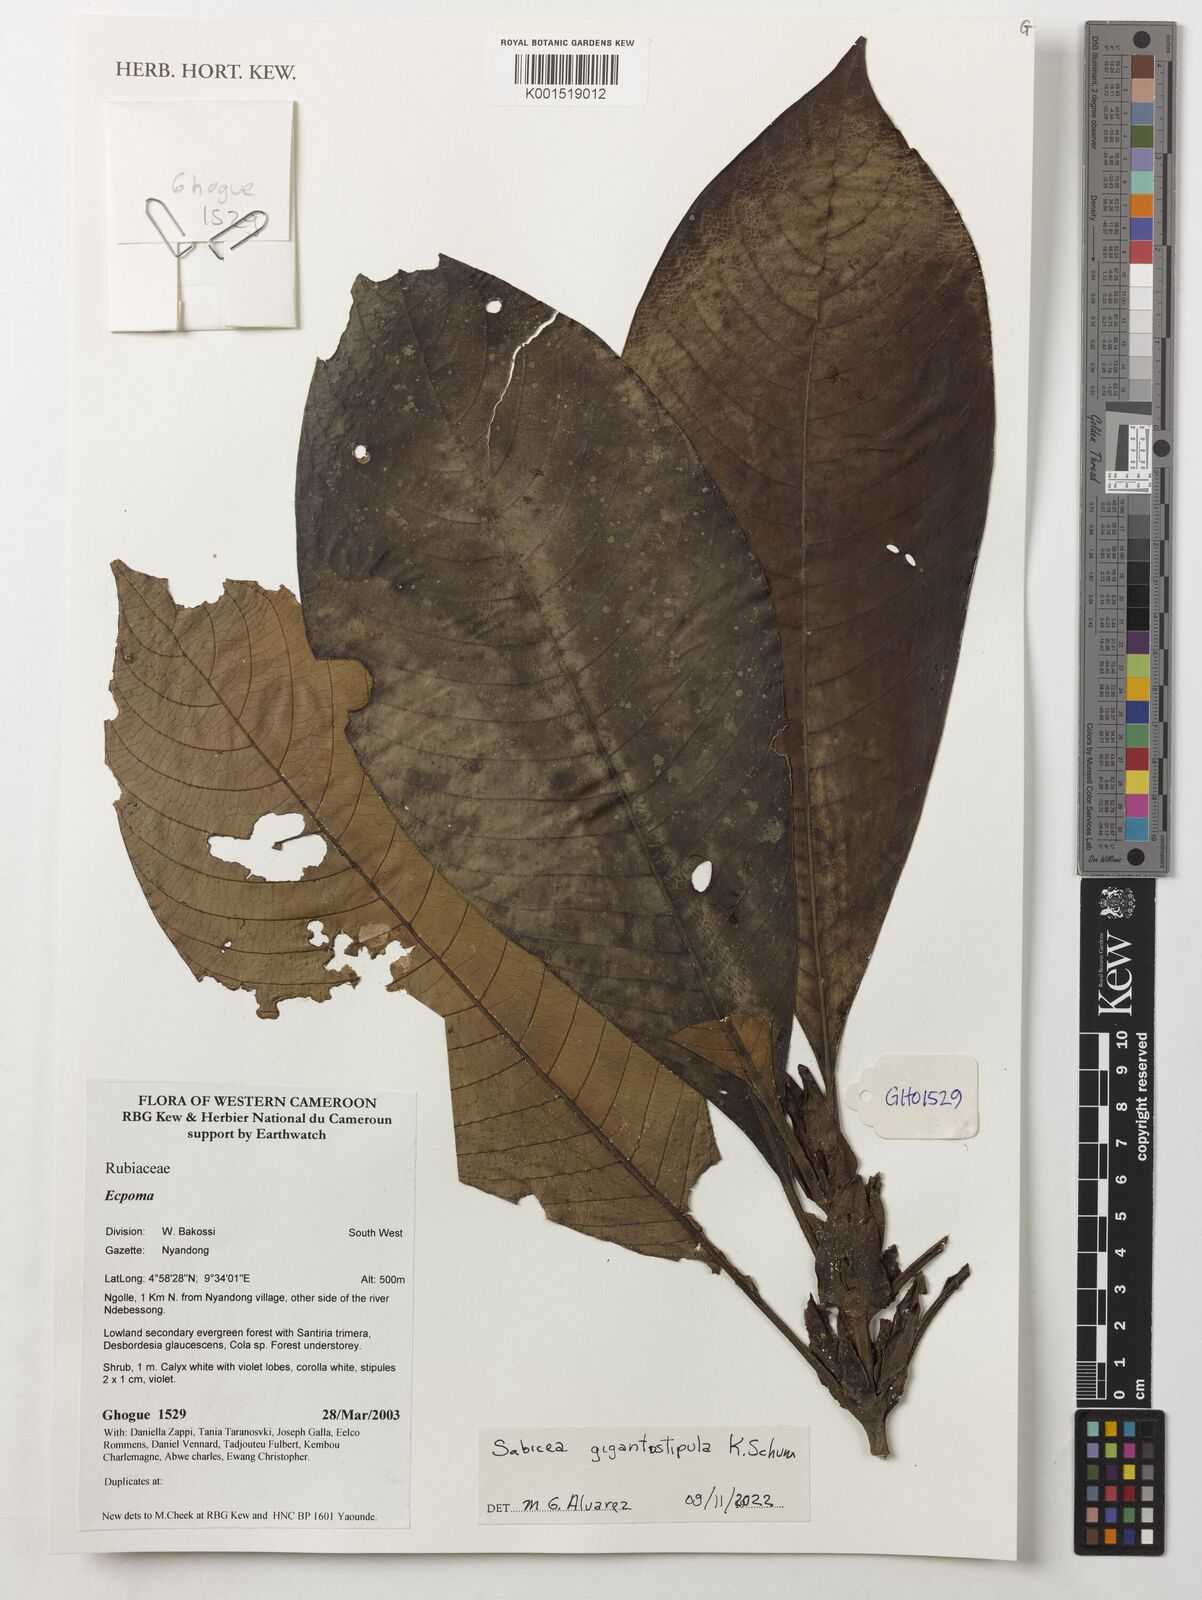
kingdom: Plantae
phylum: Tracheophyta
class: Magnoliopsida
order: Gentianales
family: Rubiaceae
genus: Sabicea
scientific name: Sabicea gigantostipula
